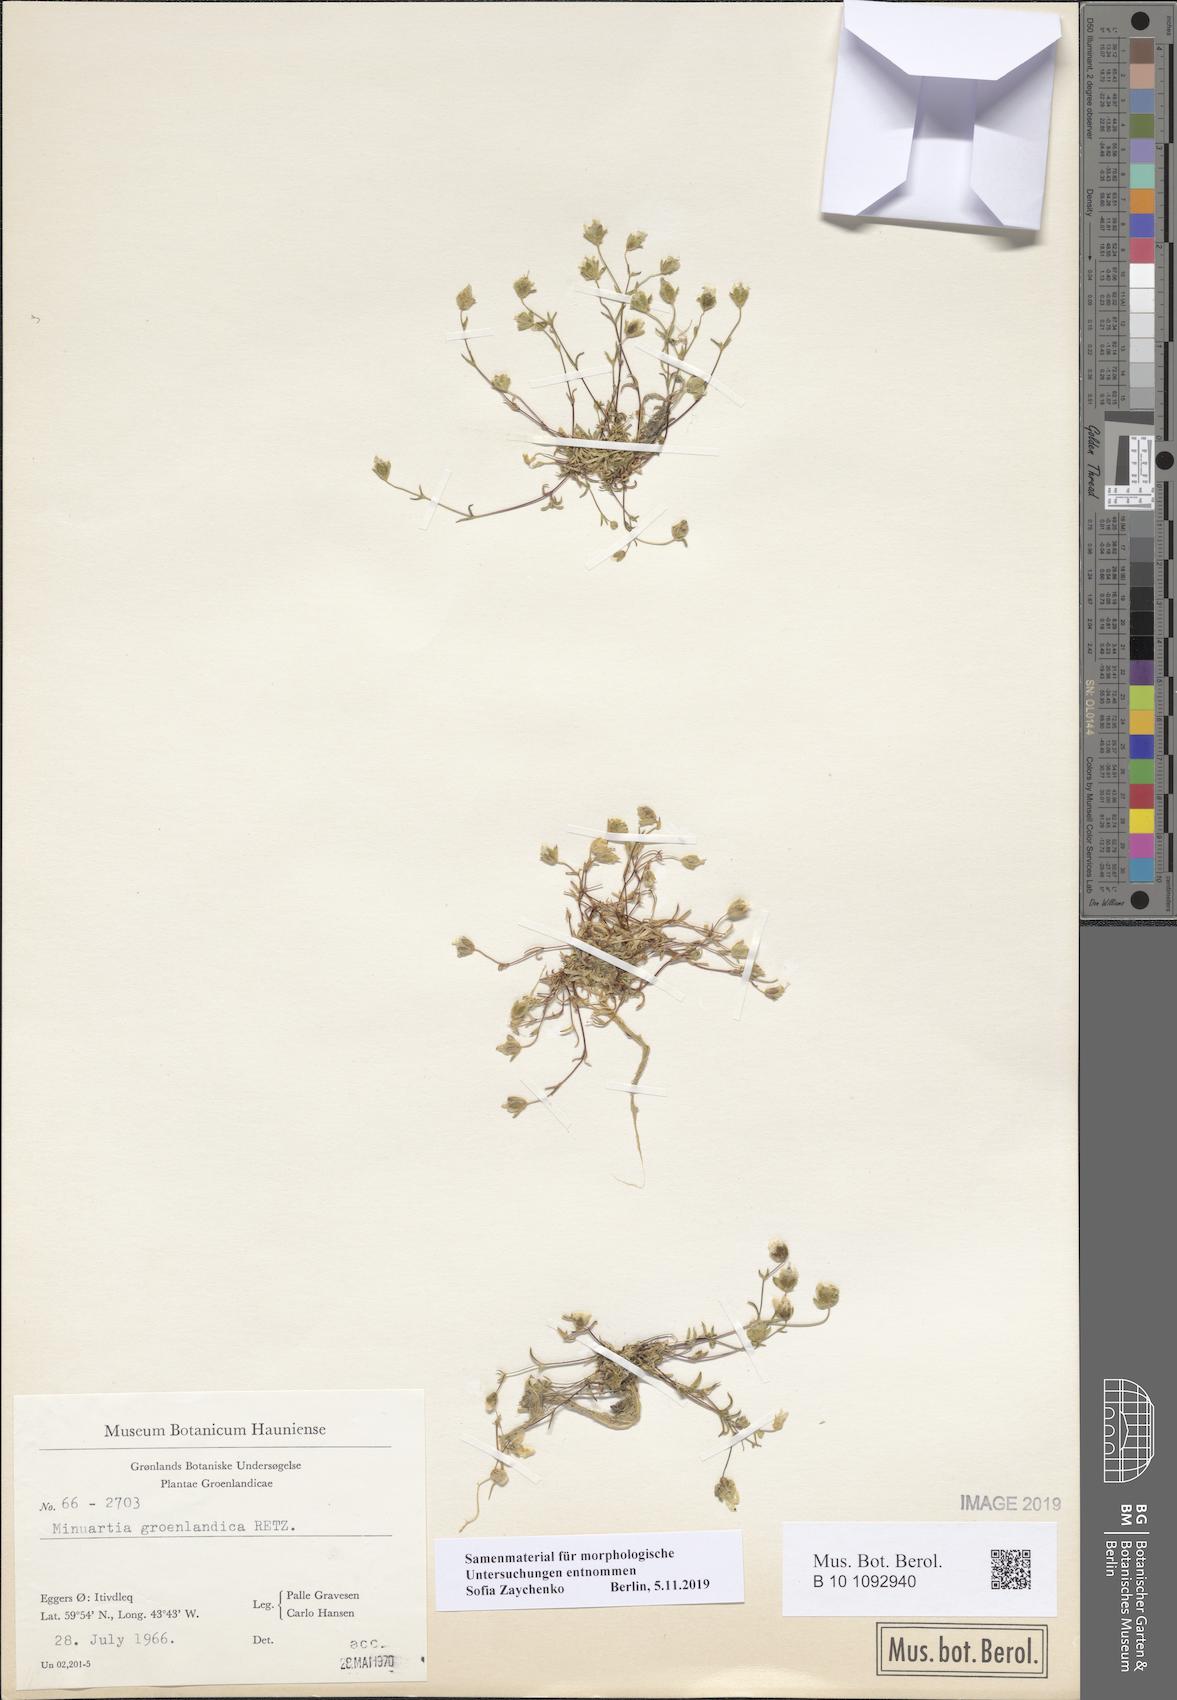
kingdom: Plantae
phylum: Tracheophyta
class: Magnoliopsida
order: Caryophyllales
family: Caryophyllaceae
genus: Geocarpon
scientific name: Geocarpon groenlandicum
